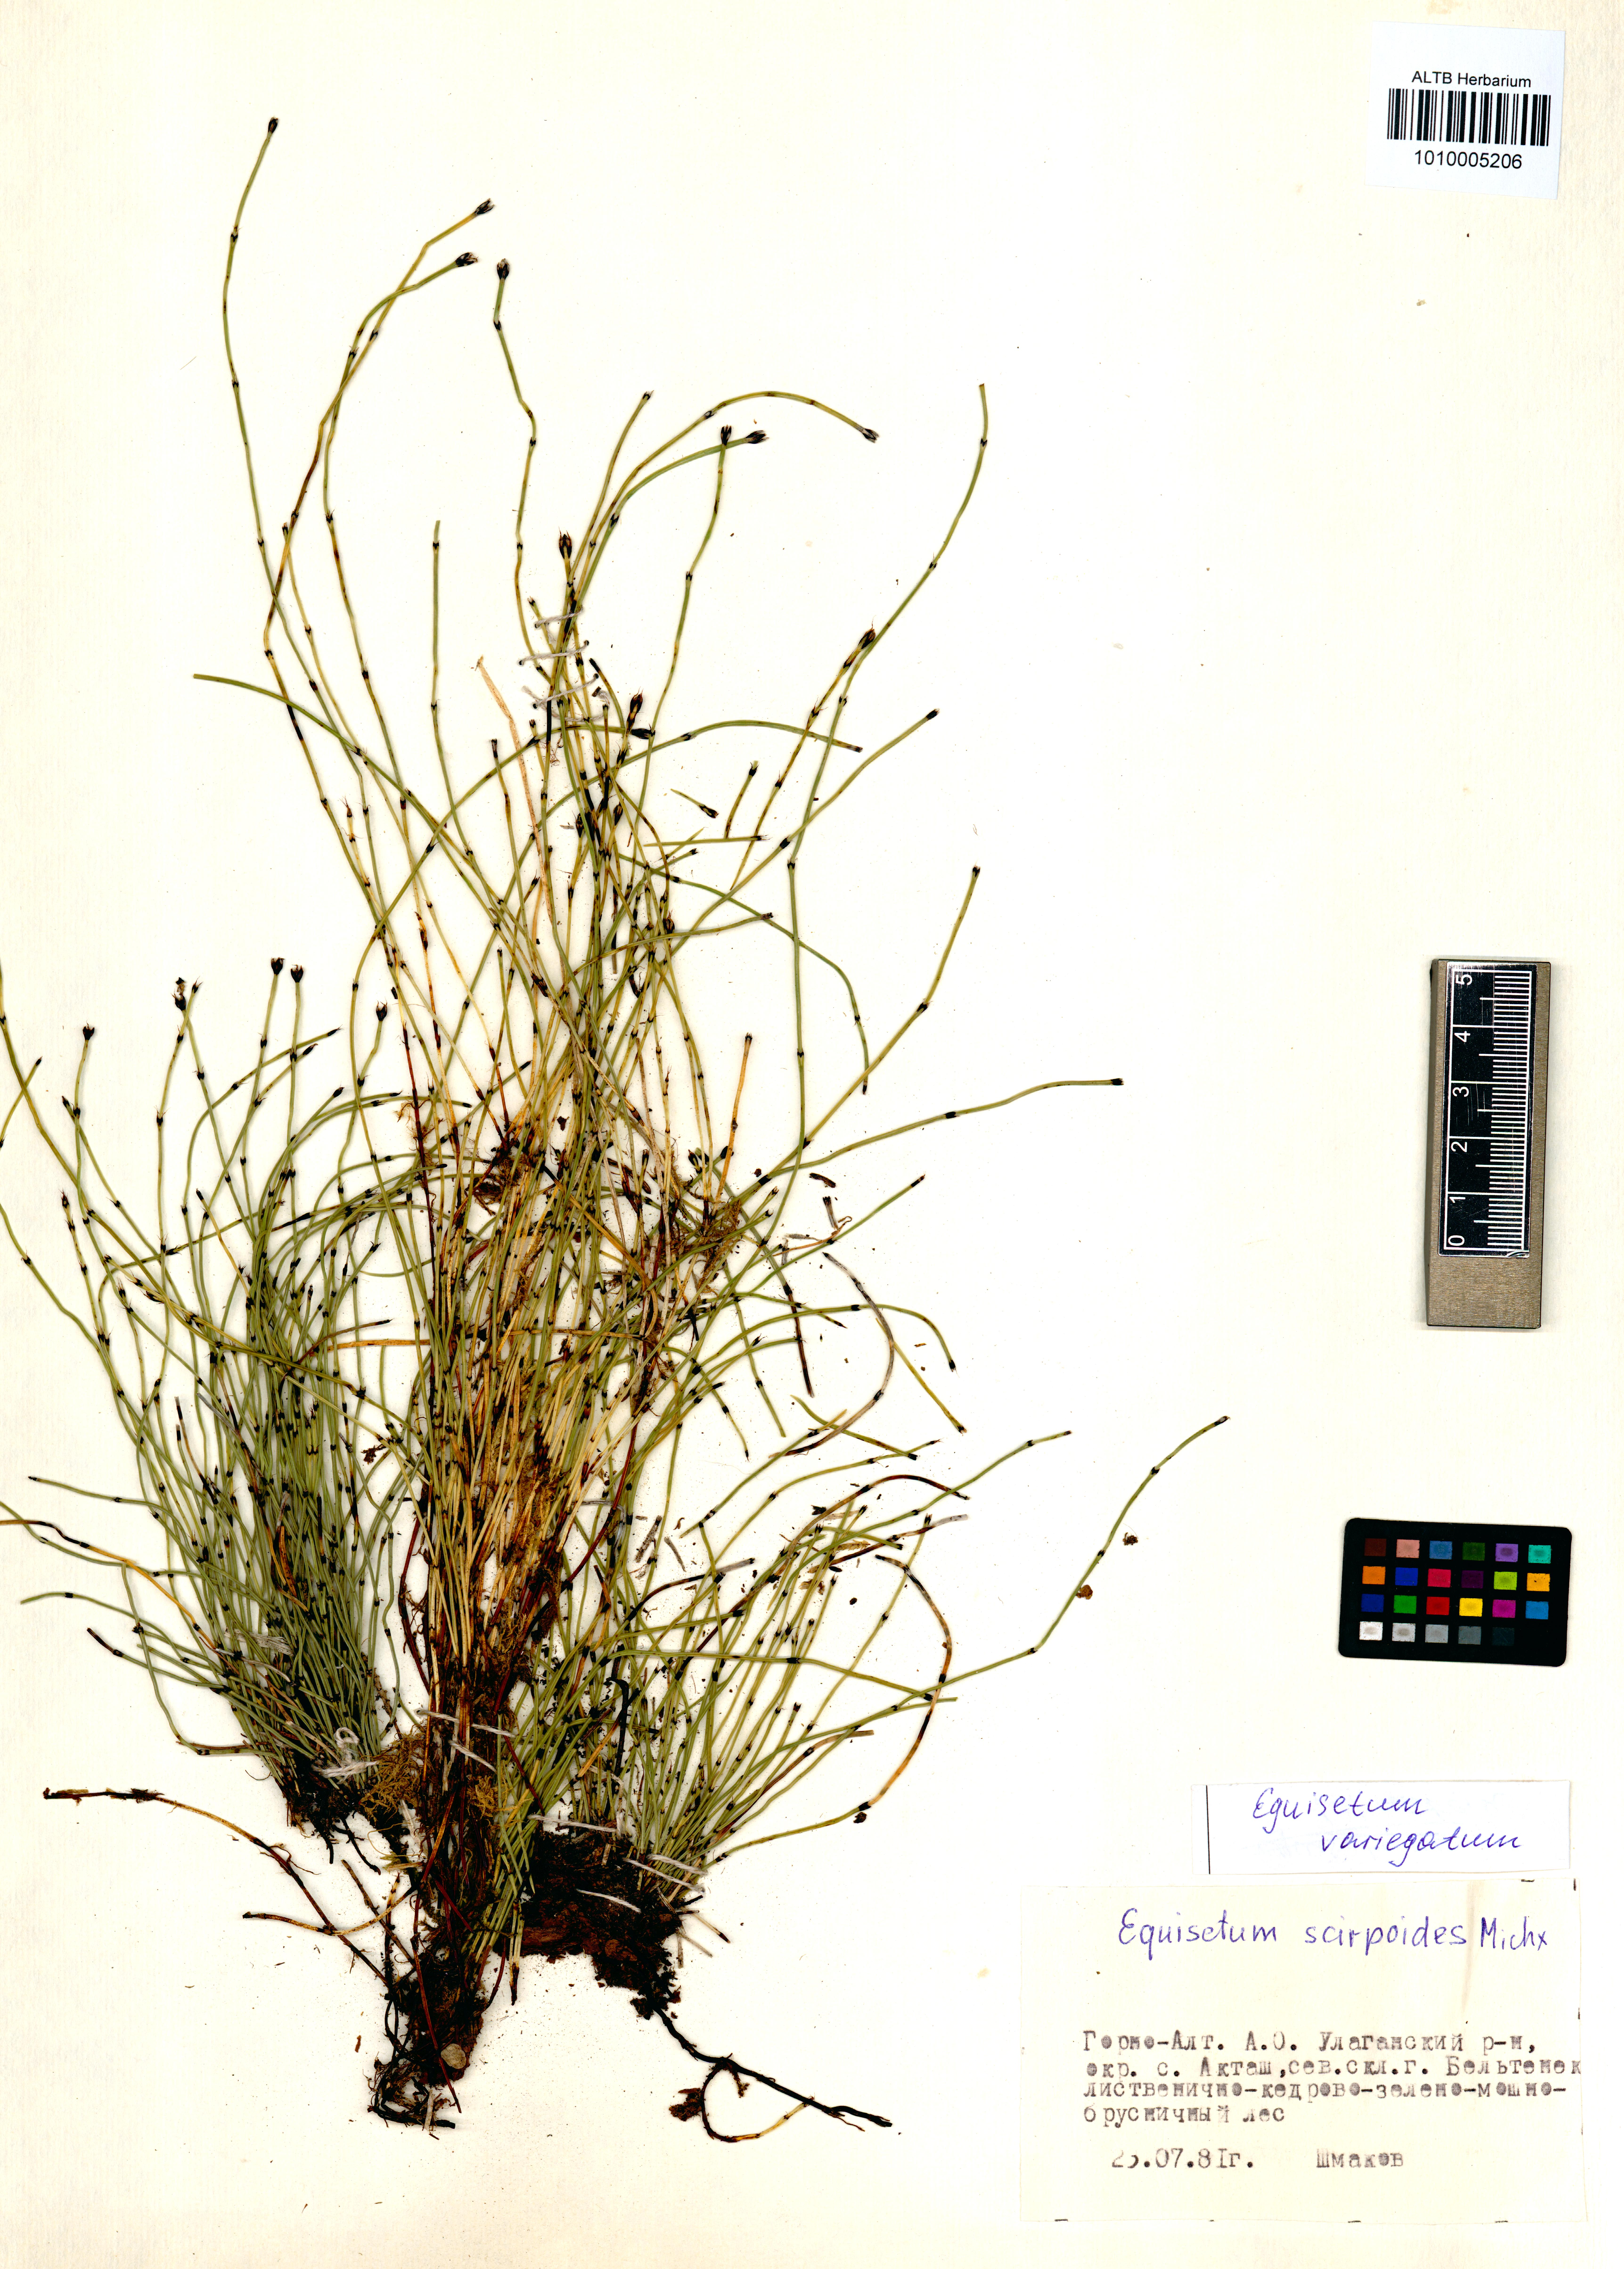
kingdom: Plantae
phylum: Tracheophyta
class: Polypodiopsida
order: Equisetales
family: Equisetaceae
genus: Equisetum
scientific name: Equisetum variegatum
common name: Variegated horsetail
